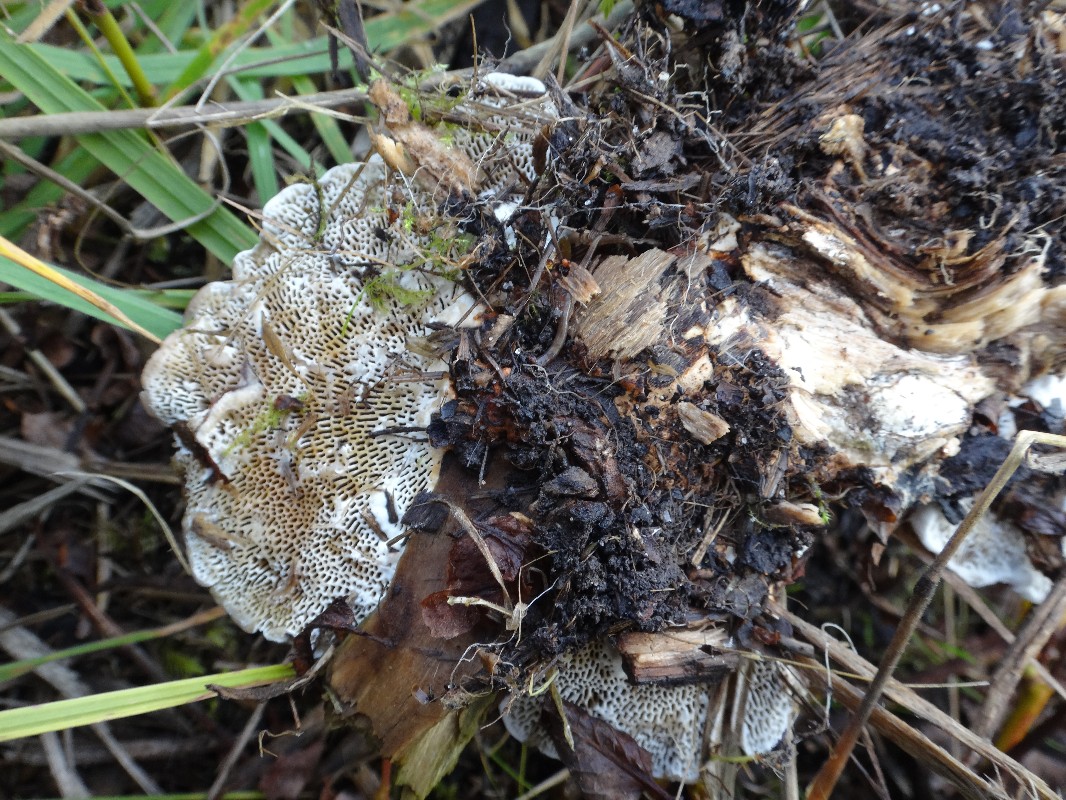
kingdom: Fungi
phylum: Basidiomycota
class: Agaricomycetes
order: Polyporales
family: Polyporaceae
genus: Daedaleopsis
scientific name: Daedaleopsis confragosa
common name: rødmende læderporesvamp
